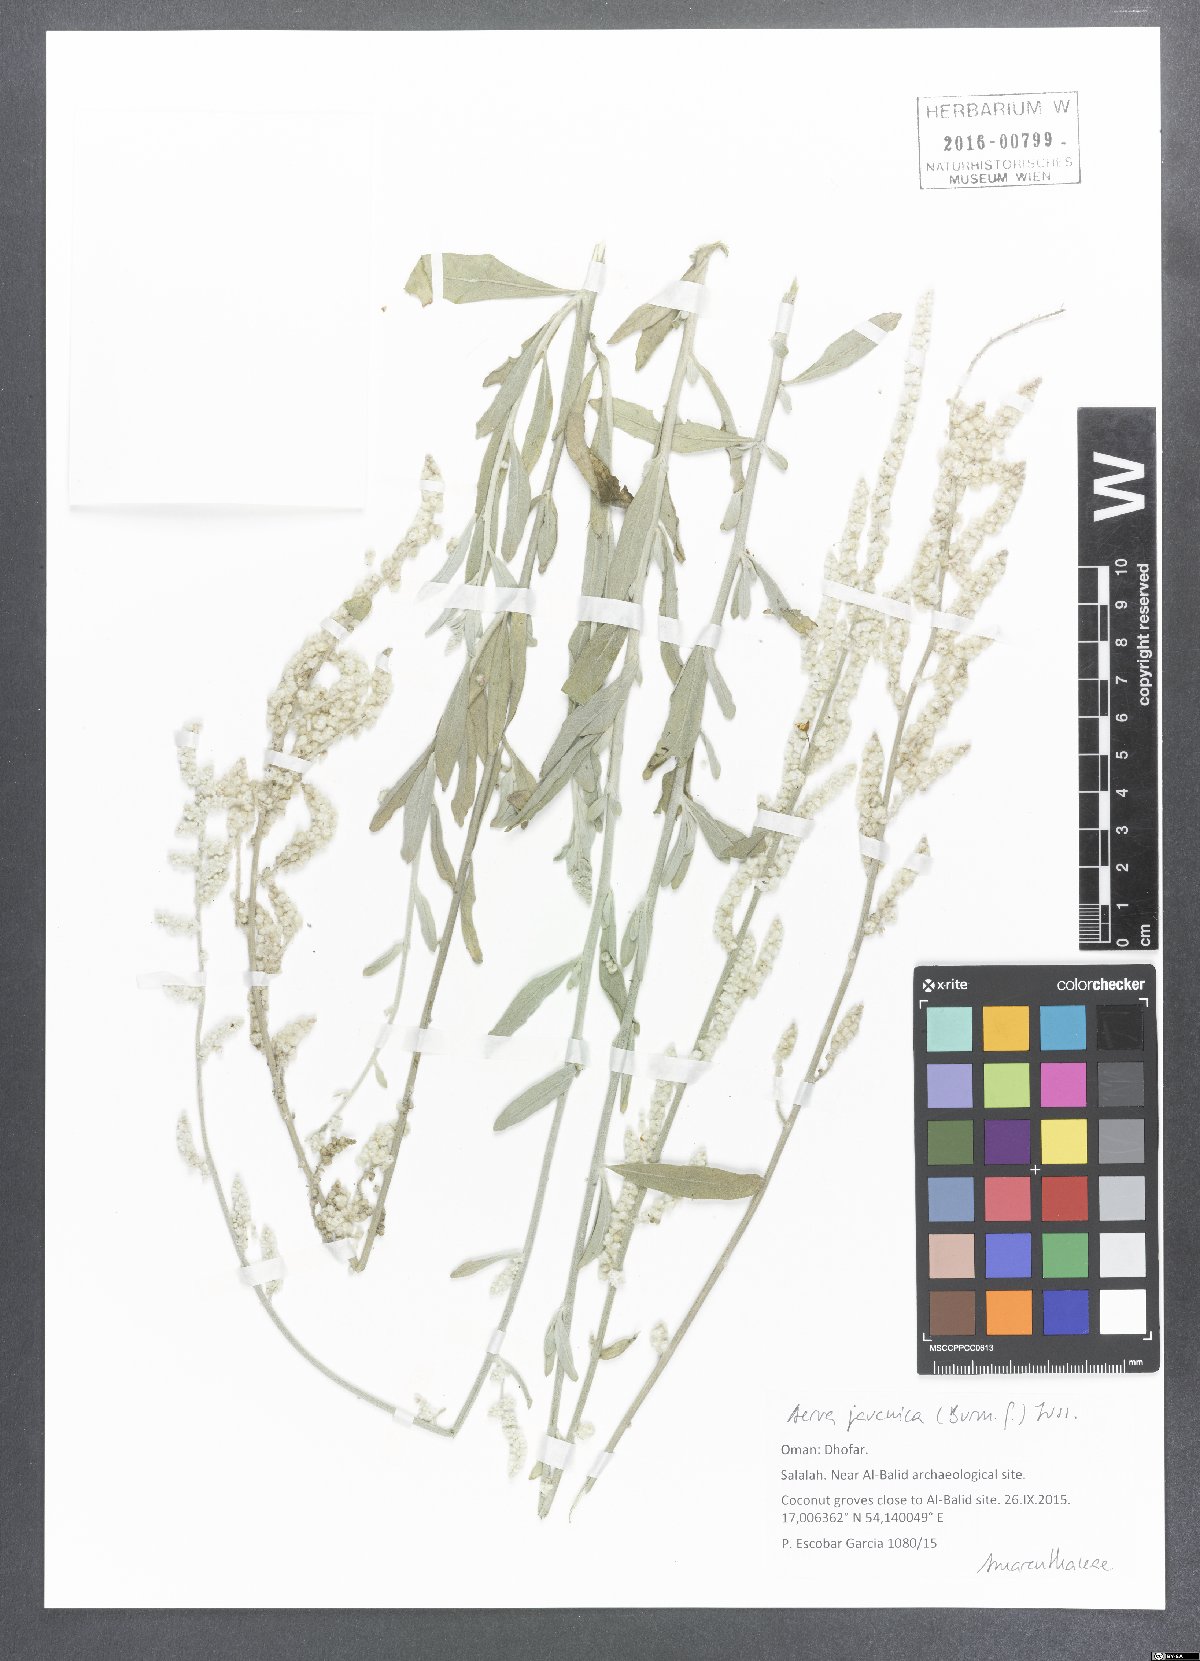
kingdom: Plantae
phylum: Tracheophyta
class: Magnoliopsida
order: Caryophyllales
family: Amaranthaceae
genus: Aerva
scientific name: Aerva javanica
